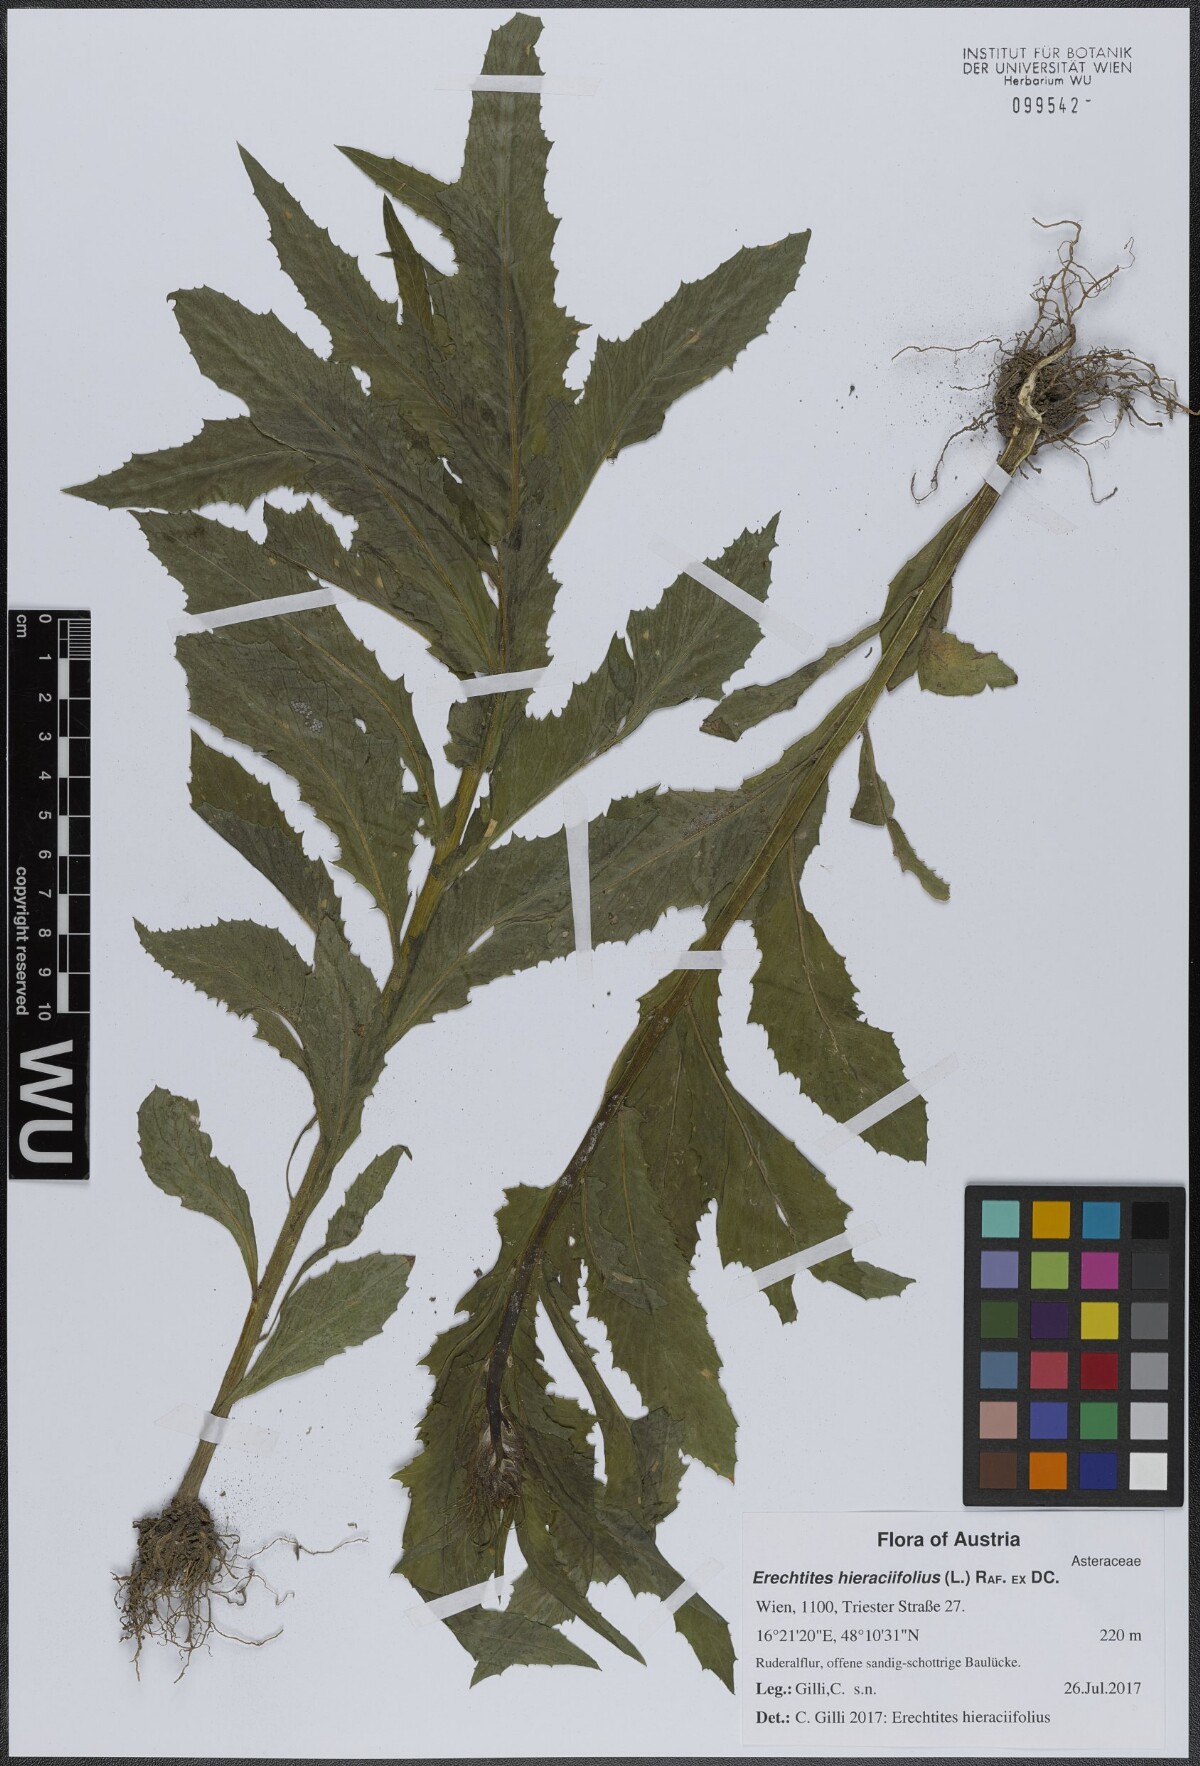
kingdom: Plantae
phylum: Tracheophyta
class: Magnoliopsida
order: Asterales
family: Asteraceae
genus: Erechtites
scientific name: Erechtites hieraciifolius
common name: American burnweed
